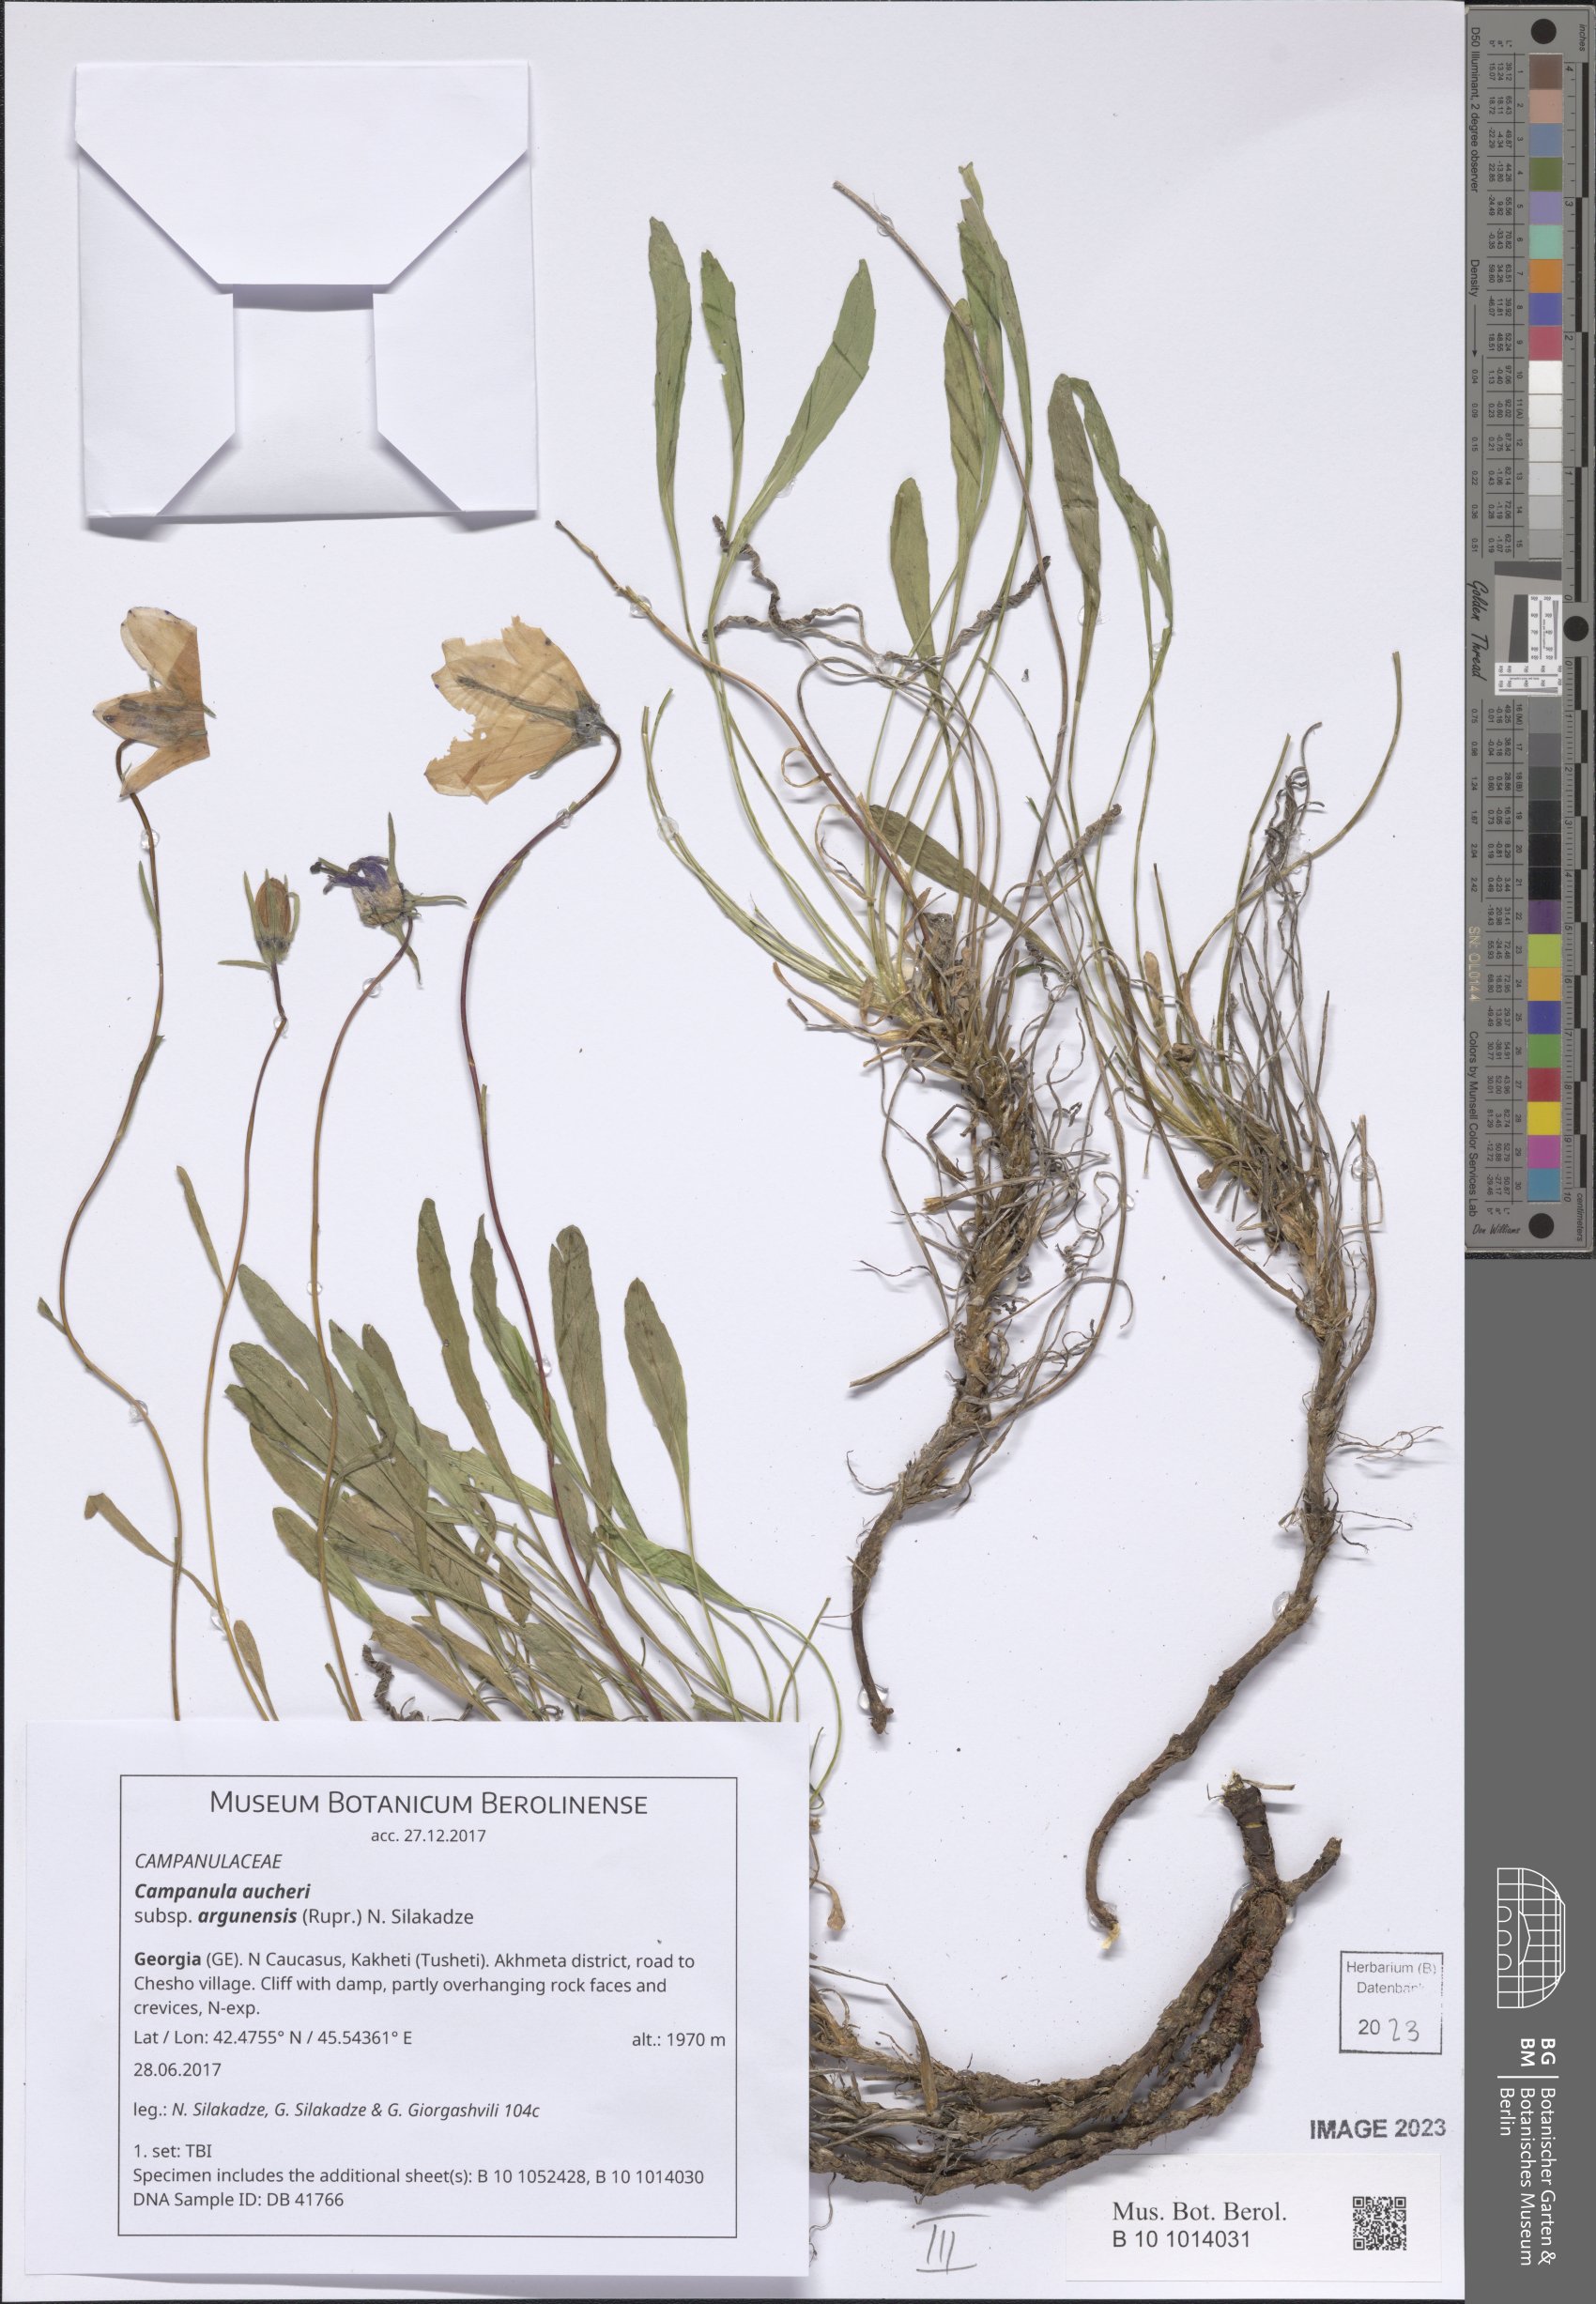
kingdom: Plantae
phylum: Tracheophyta
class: Magnoliopsida
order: Asterales
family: Campanulaceae
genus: Campanula
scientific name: Campanula saxifraga
